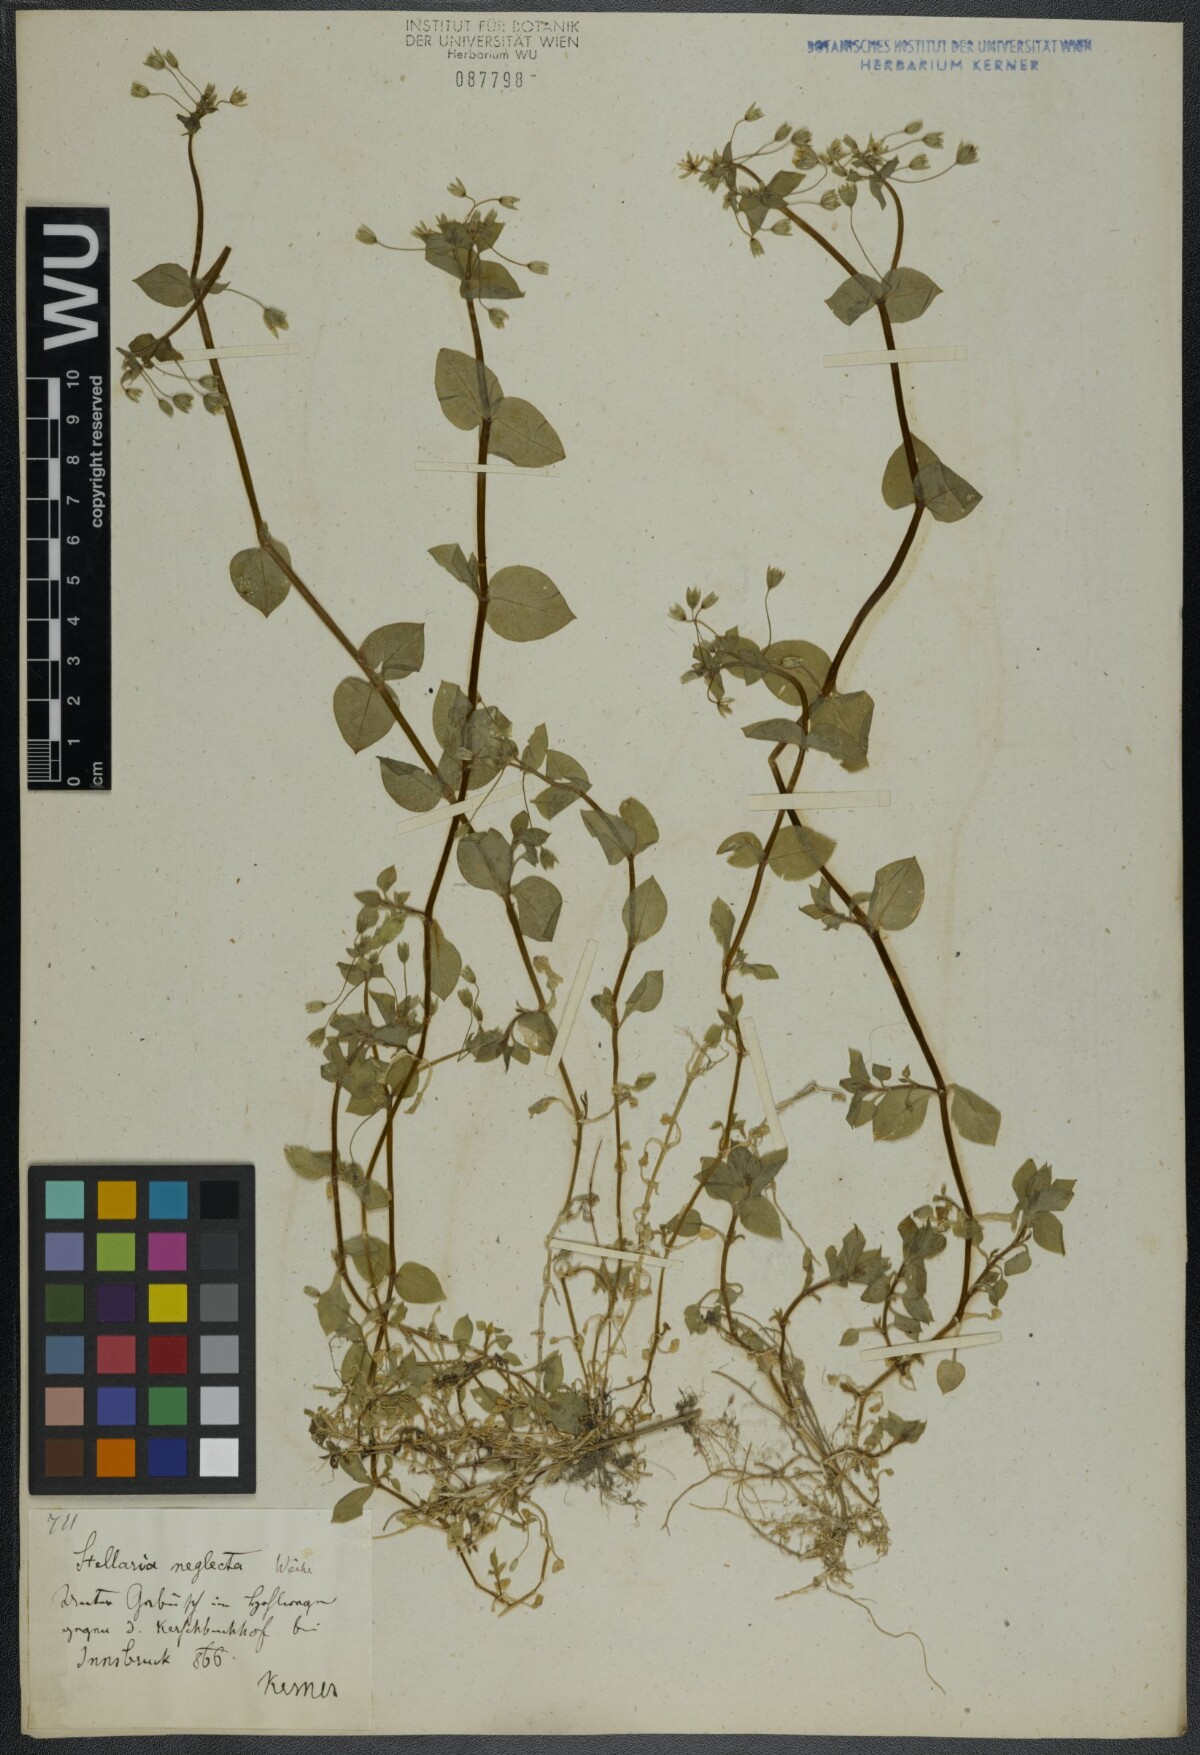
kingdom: Plantae
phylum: Tracheophyta
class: Magnoliopsida
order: Caryophyllales
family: Caryophyllaceae
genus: Stellaria
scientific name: Stellaria neglecta
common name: Greater chickweed
